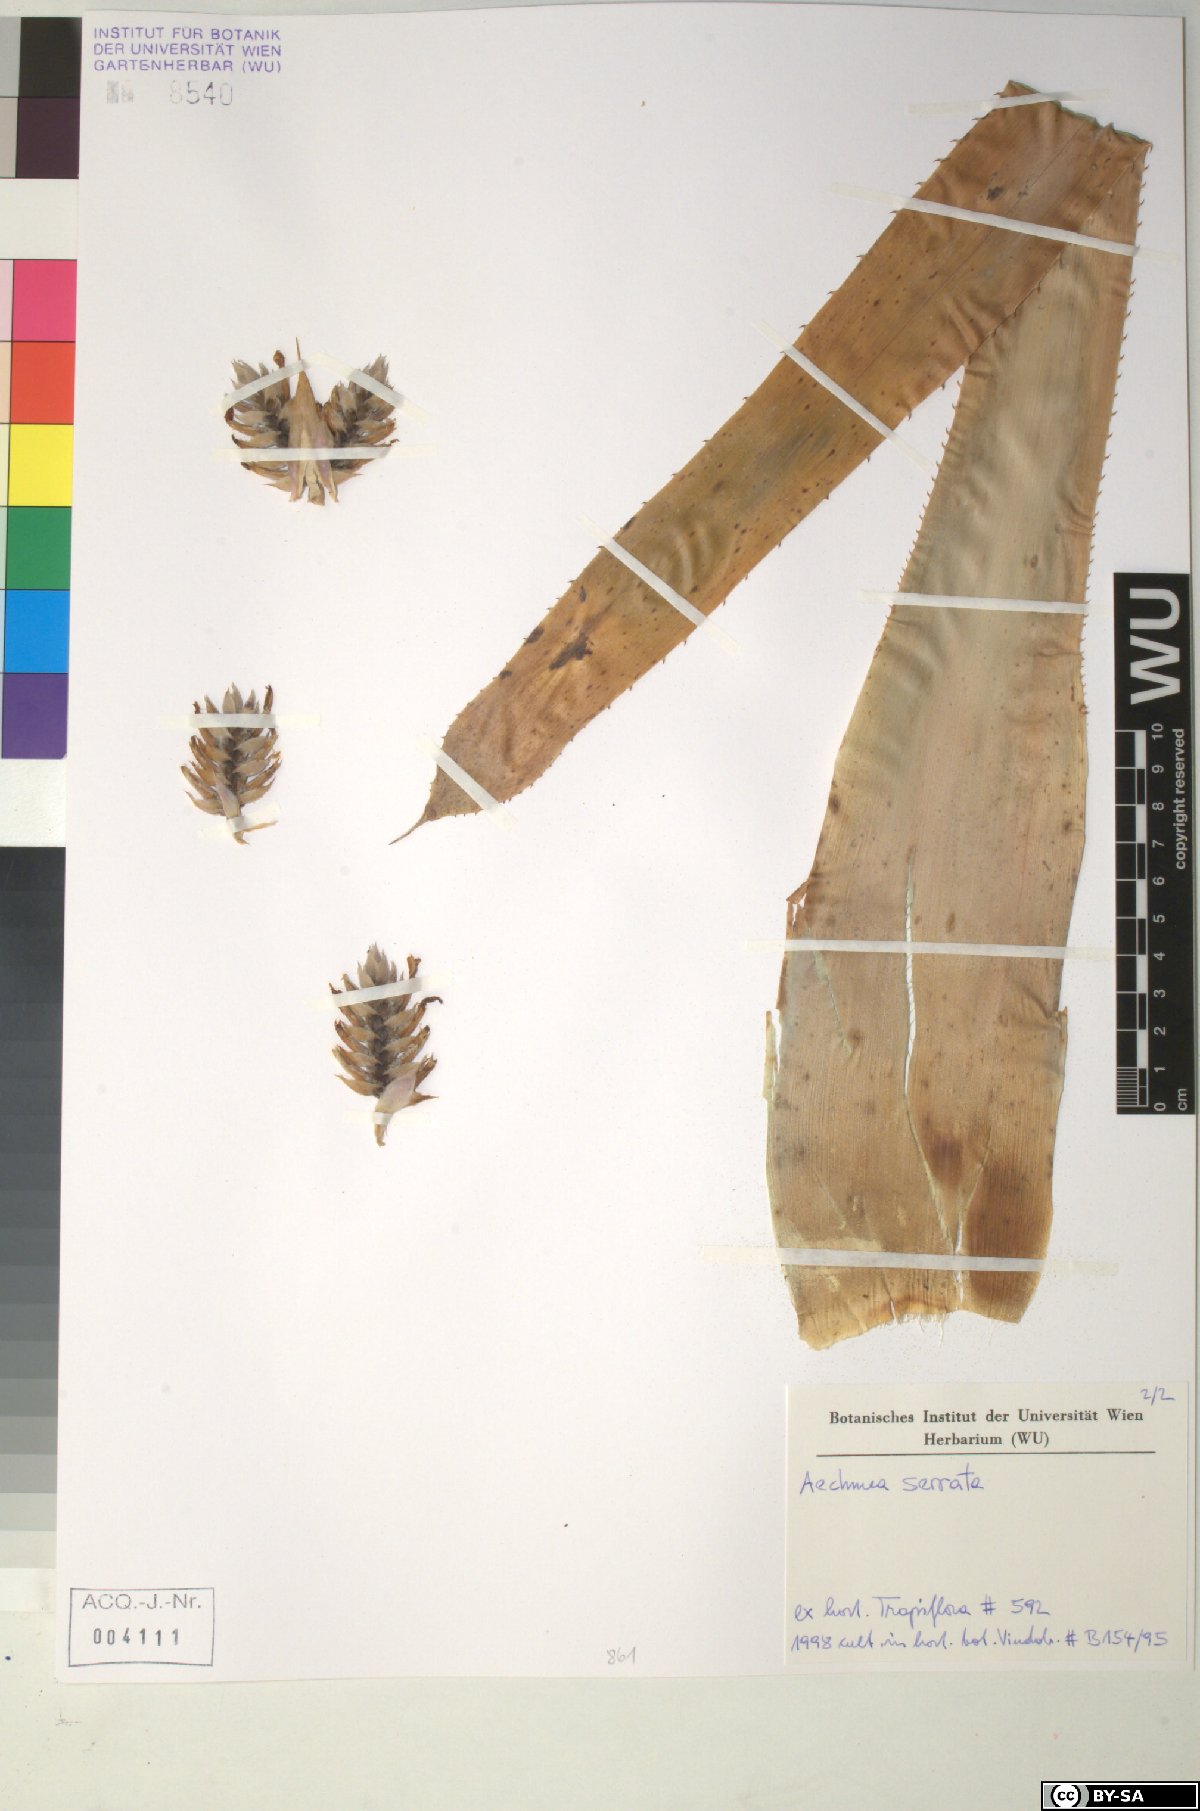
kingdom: Plantae
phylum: Tracheophyta
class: Liliopsida
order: Poales
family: Bromeliaceae
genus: Aechmea
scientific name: Aechmea serrata
